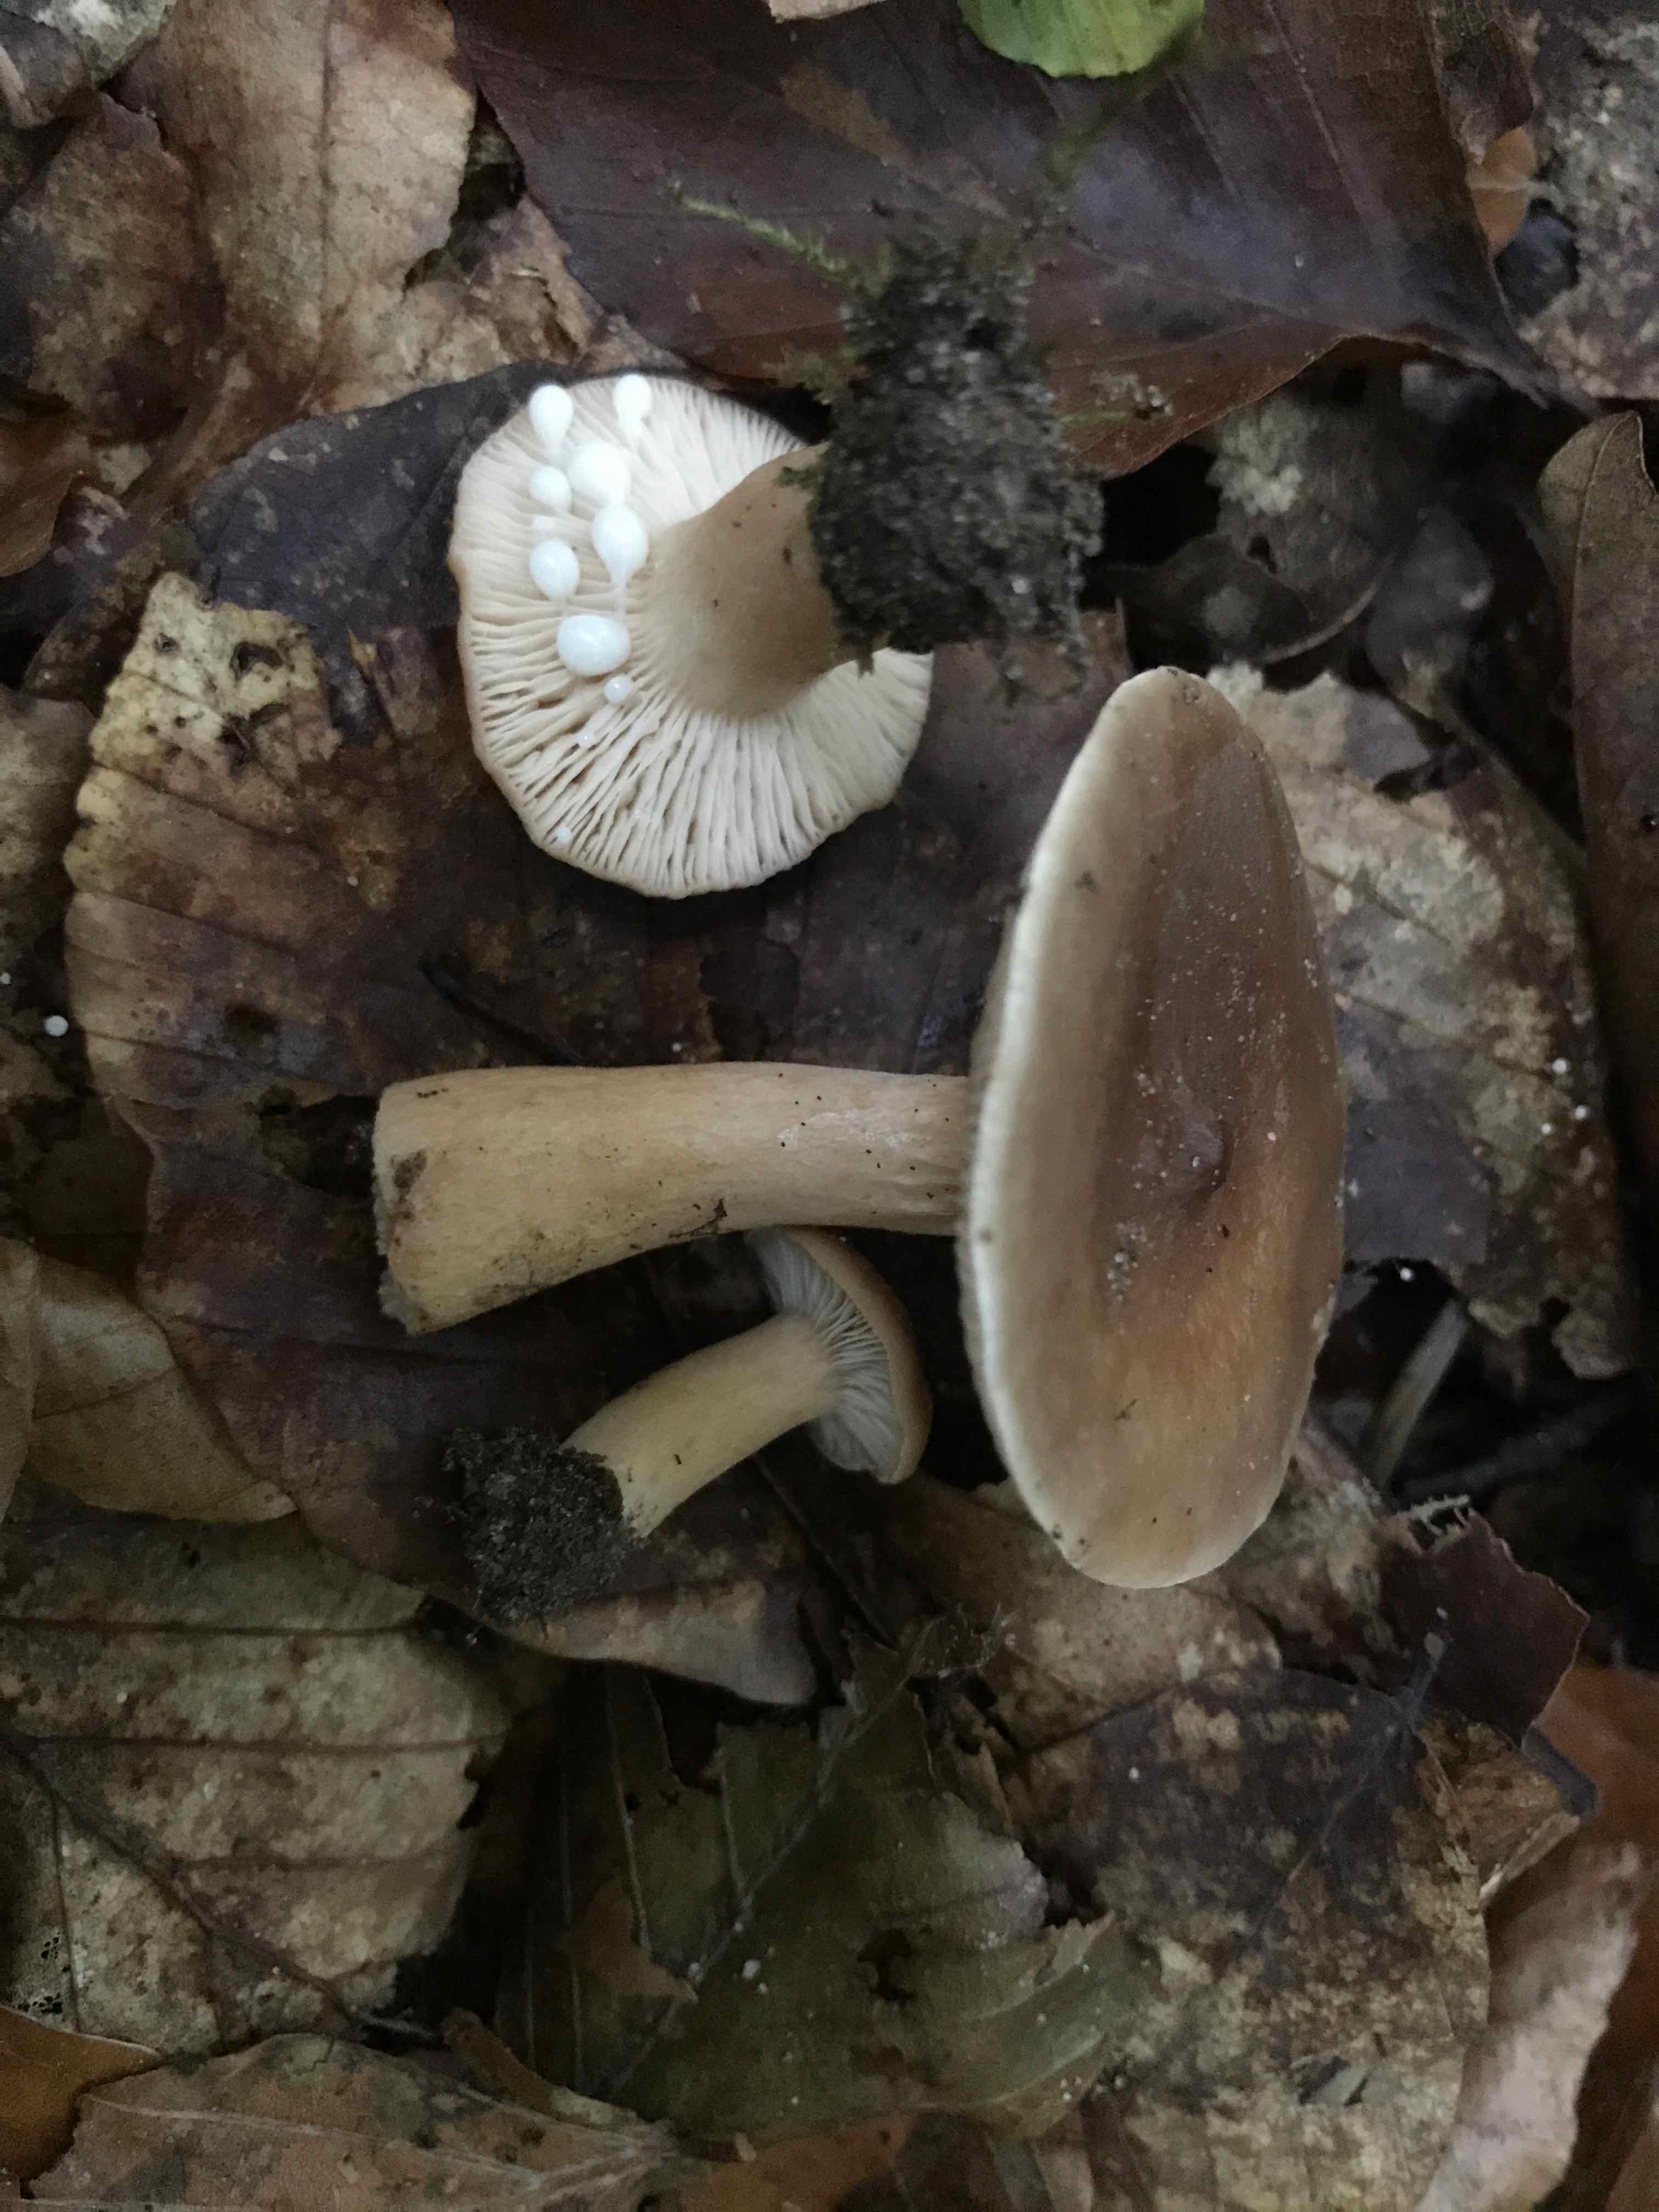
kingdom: Fungi
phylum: Basidiomycota
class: Agaricomycetes
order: Russulales
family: Russulaceae
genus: Lactarius
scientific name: Lactarius tabidus
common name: rynket mælkehat
